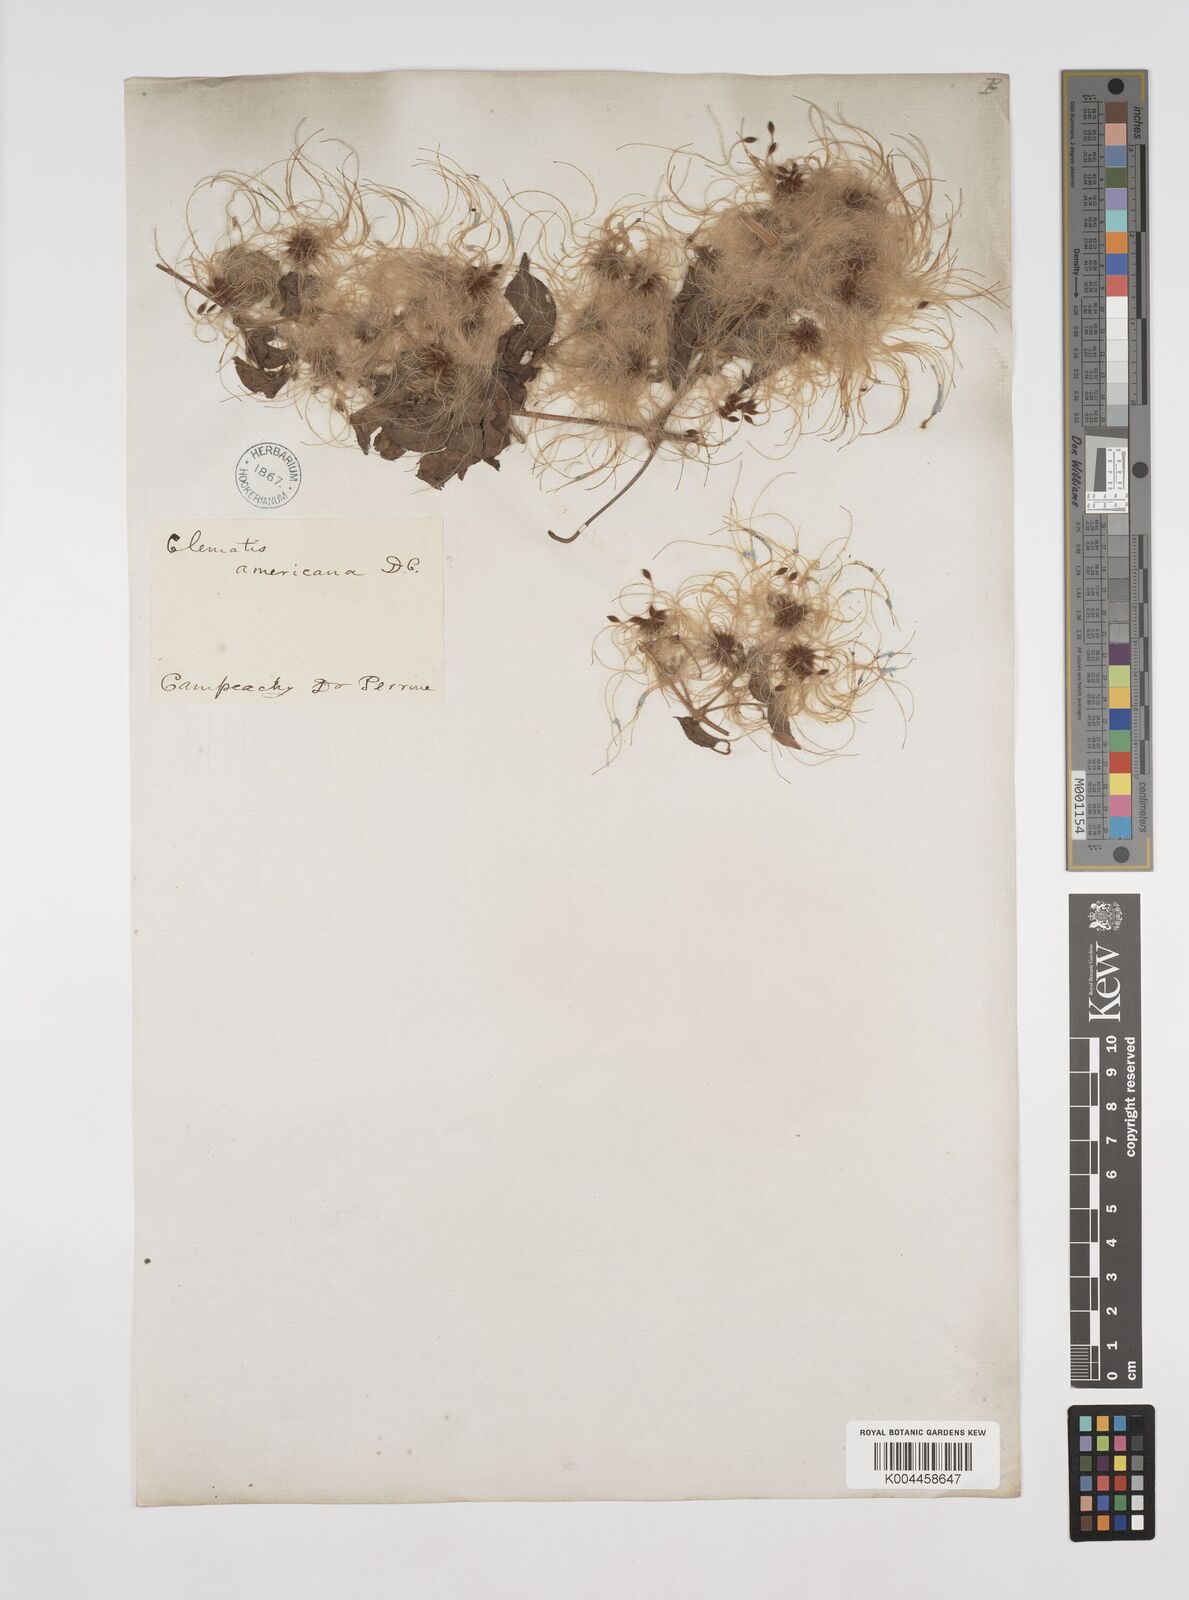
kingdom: Plantae
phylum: Tracheophyta
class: Magnoliopsida
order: Ranunculales
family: Ranunculaceae
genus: Clematis
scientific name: Clematis dioica
